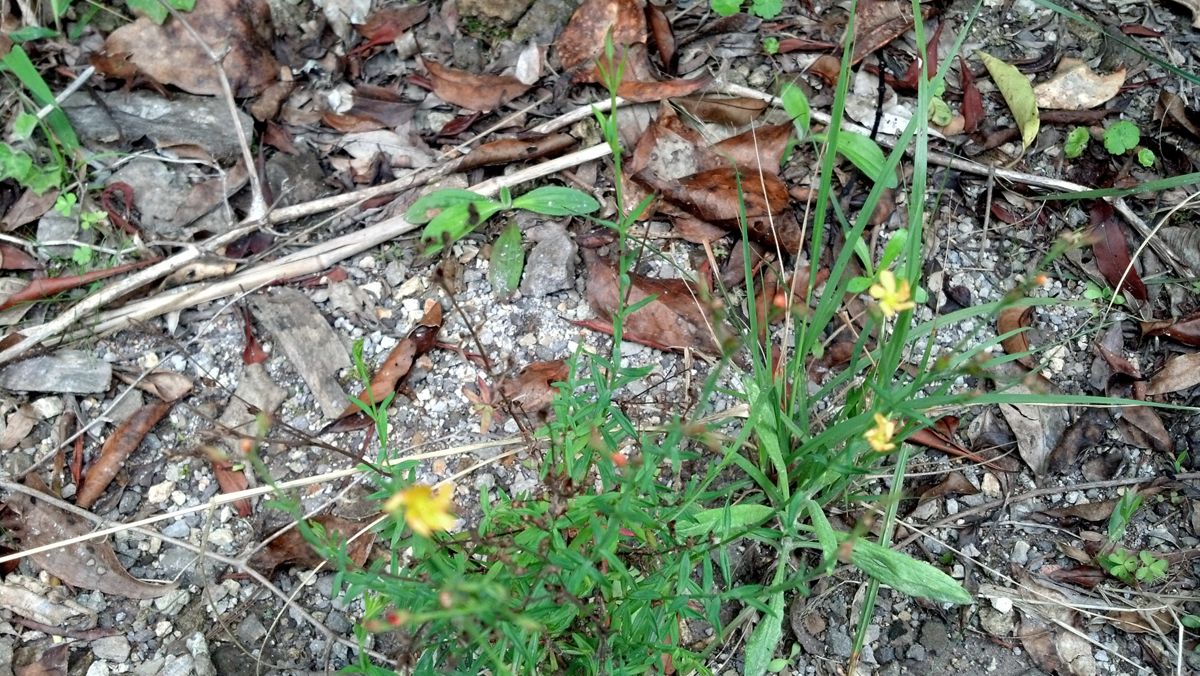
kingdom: Plantae
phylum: Tracheophyta
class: Magnoliopsida
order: Malpighiales
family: Hypericaceae
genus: Hypericum
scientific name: Hypericum pratense
